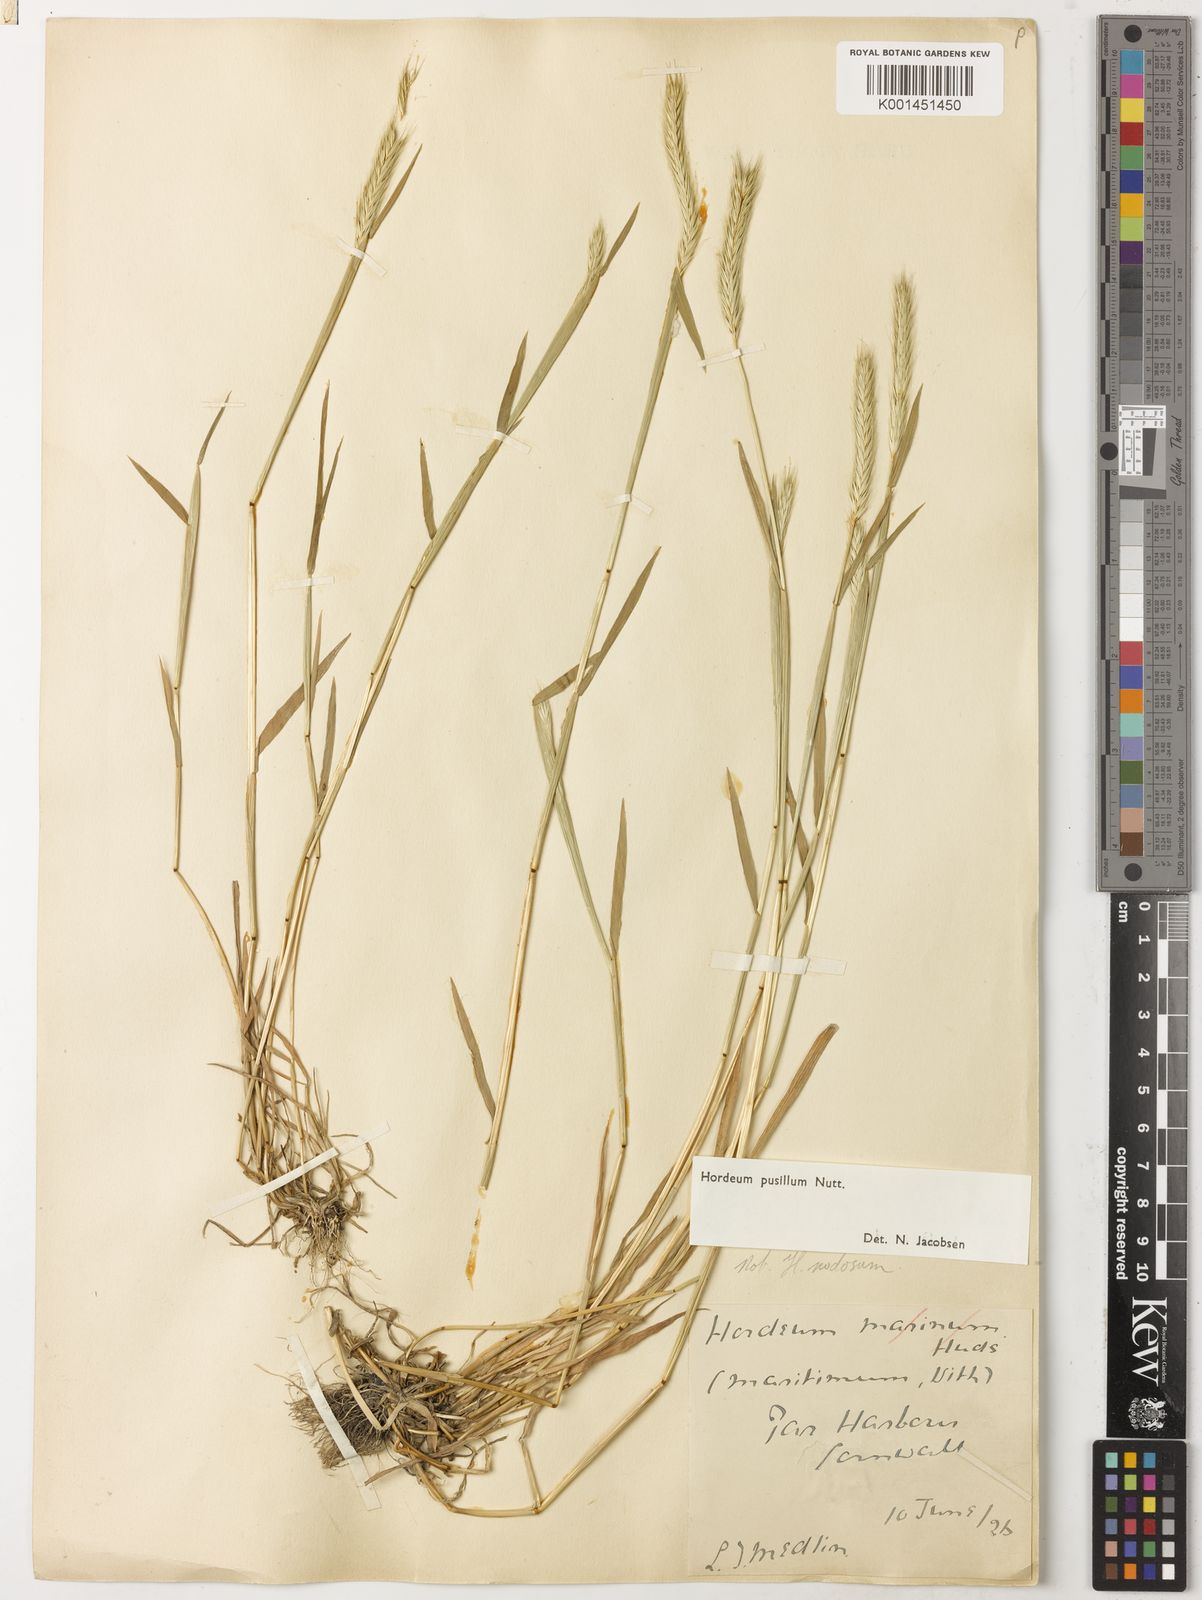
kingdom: Plantae
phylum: Tracheophyta
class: Liliopsida
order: Poales
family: Poaceae
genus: Hordeum
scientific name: Hordeum pusillum
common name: Little barley
